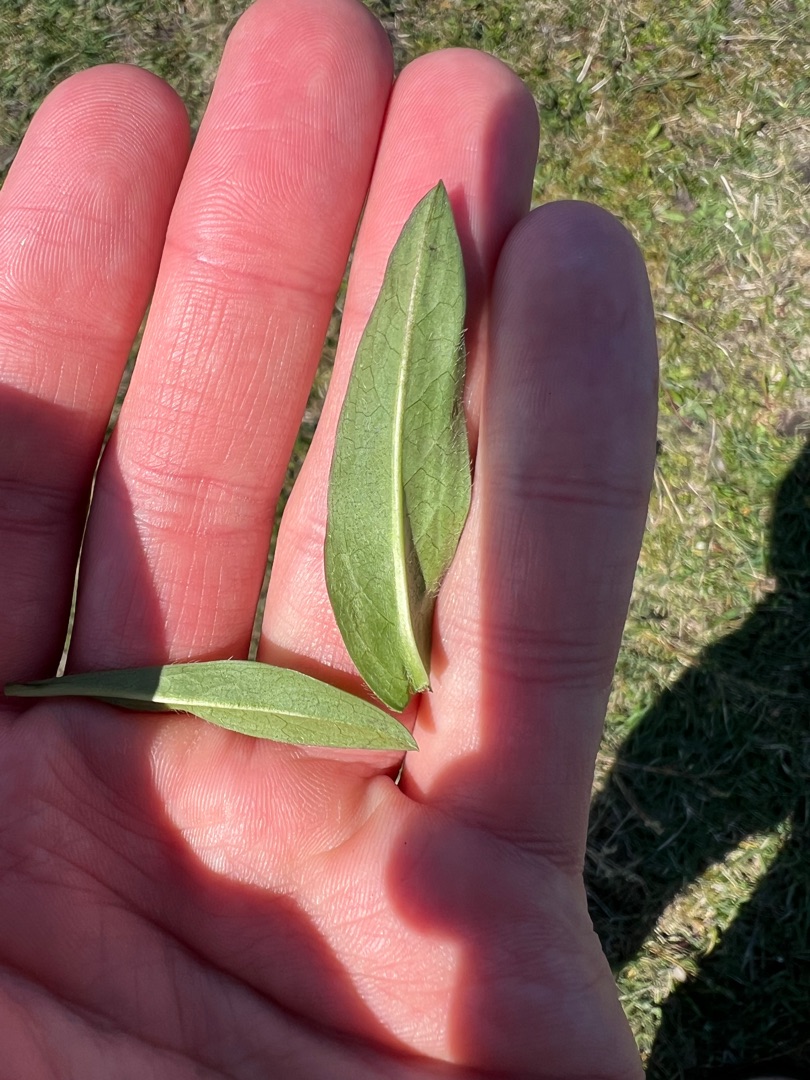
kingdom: Plantae
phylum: Tracheophyta
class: Magnoliopsida
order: Dipsacales
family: Caprifoliaceae
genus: Succisa
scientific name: Succisa pratensis
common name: Djævelsbid
